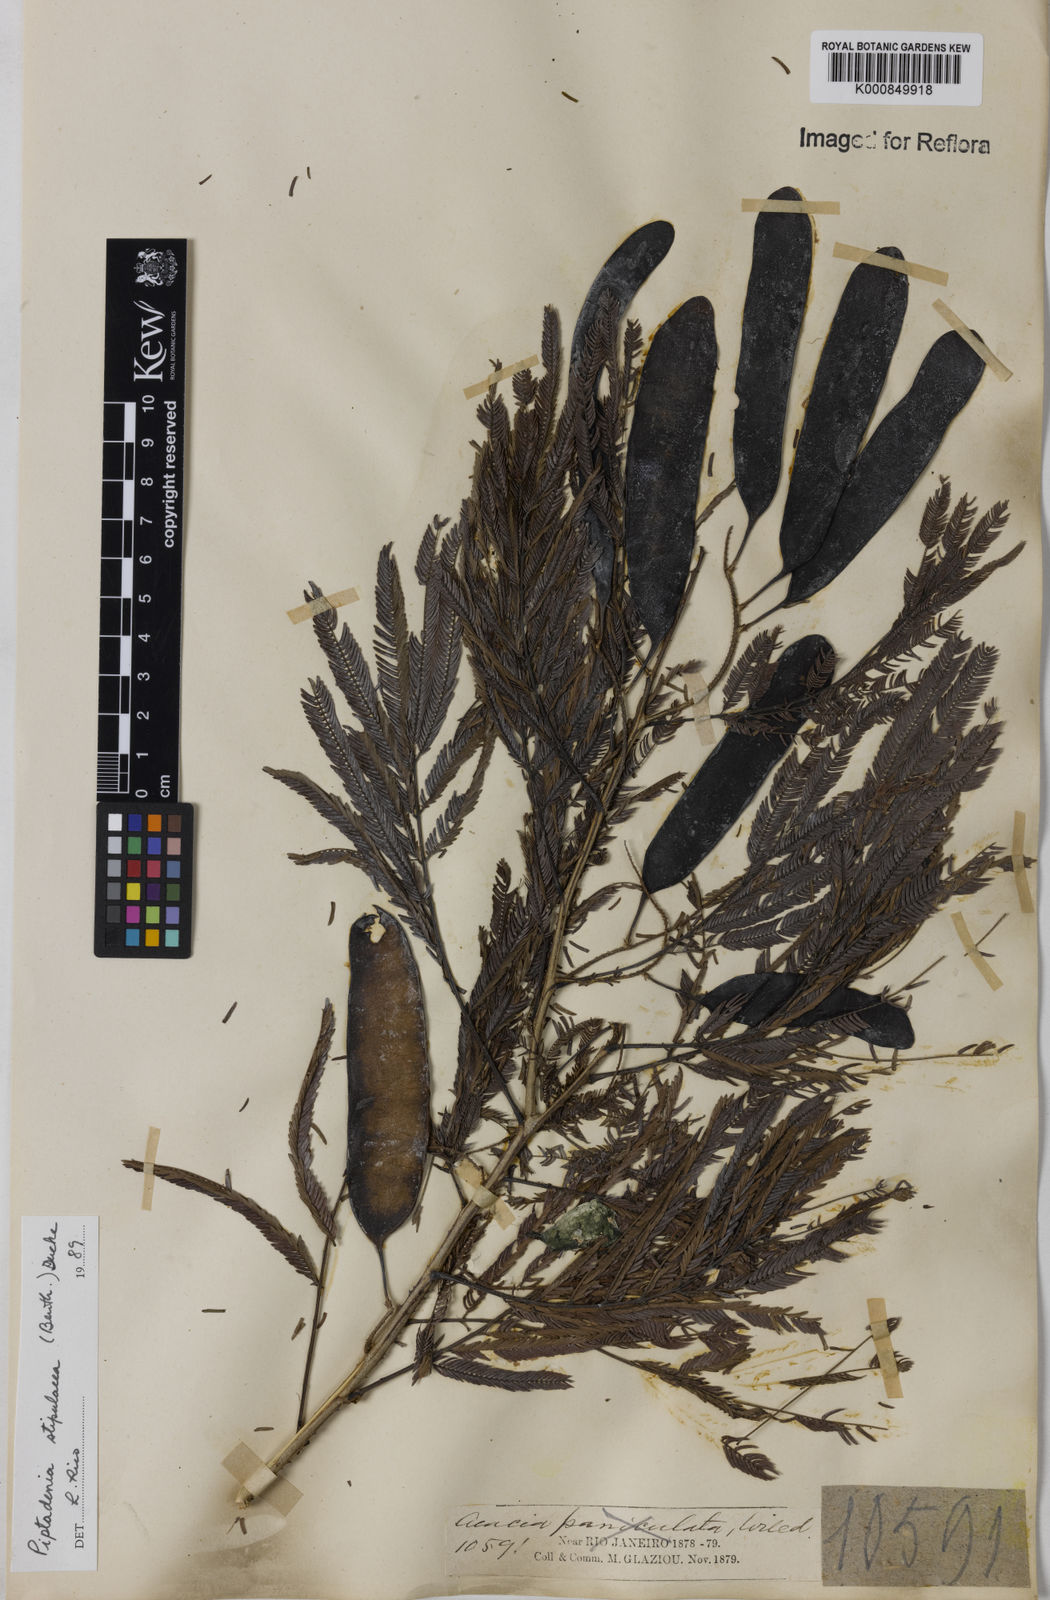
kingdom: Plantae
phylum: Tracheophyta
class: Magnoliopsida
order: Fabales
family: Fabaceae
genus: Piptadenia
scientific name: Piptadenia retusa
